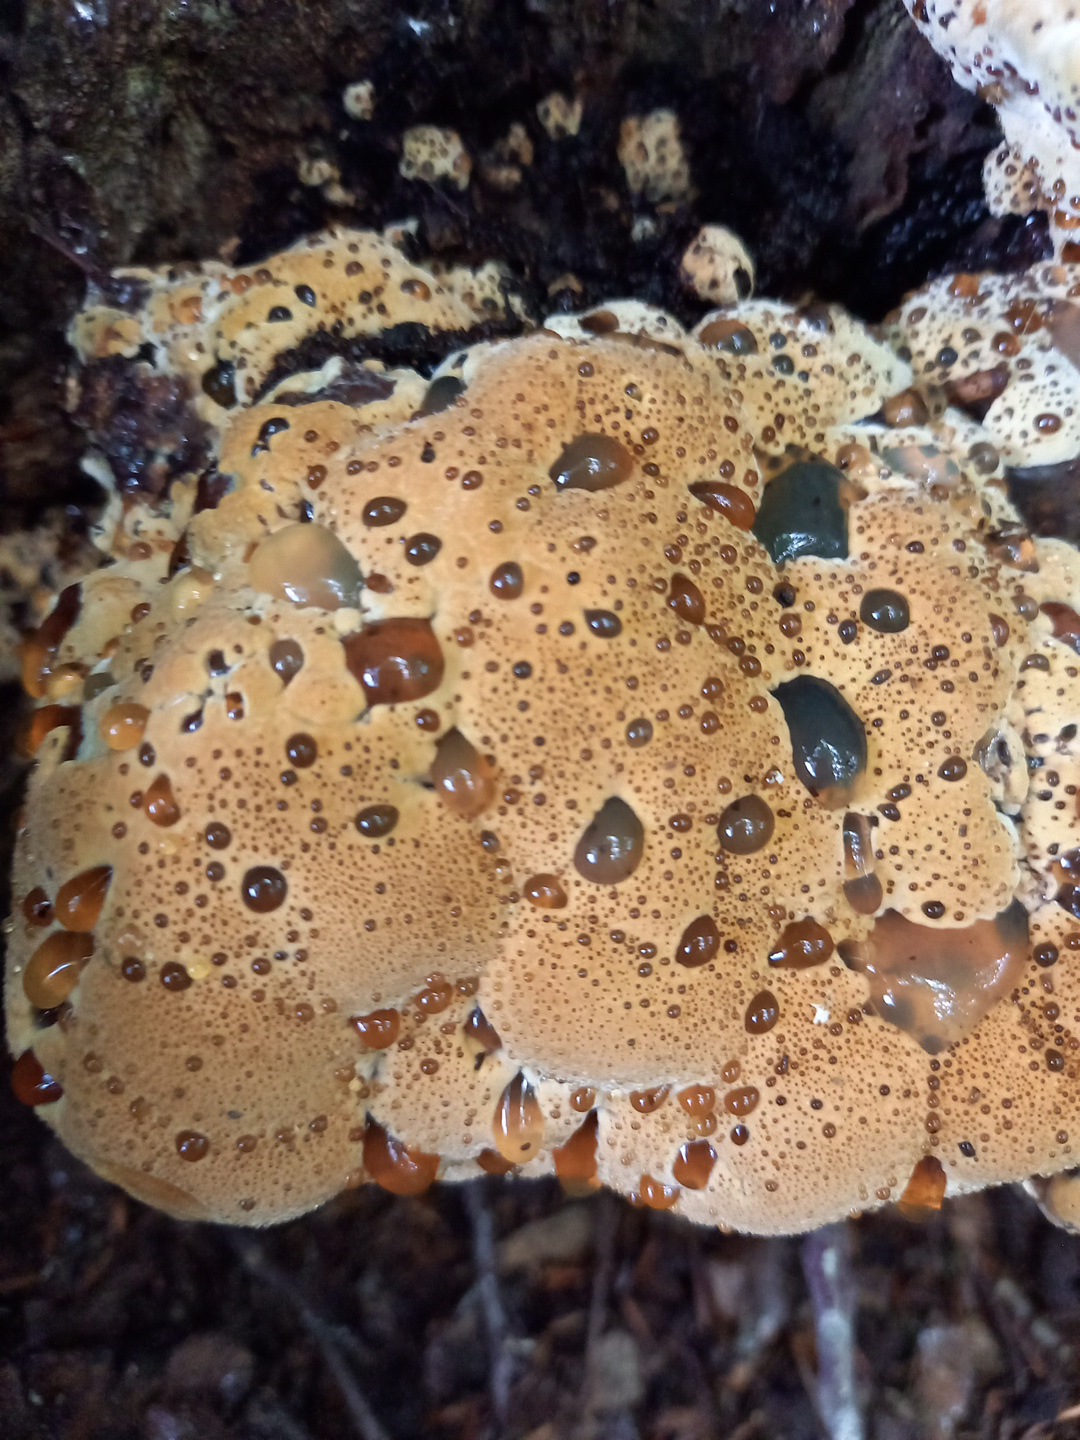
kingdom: Fungi
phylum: Basidiomycota
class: Agaricomycetes
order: Hymenochaetales
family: Hymenochaetaceae
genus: Pseudoinonotus
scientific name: Pseudoinonotus dryadeus
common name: ege-spejlporesvamp
